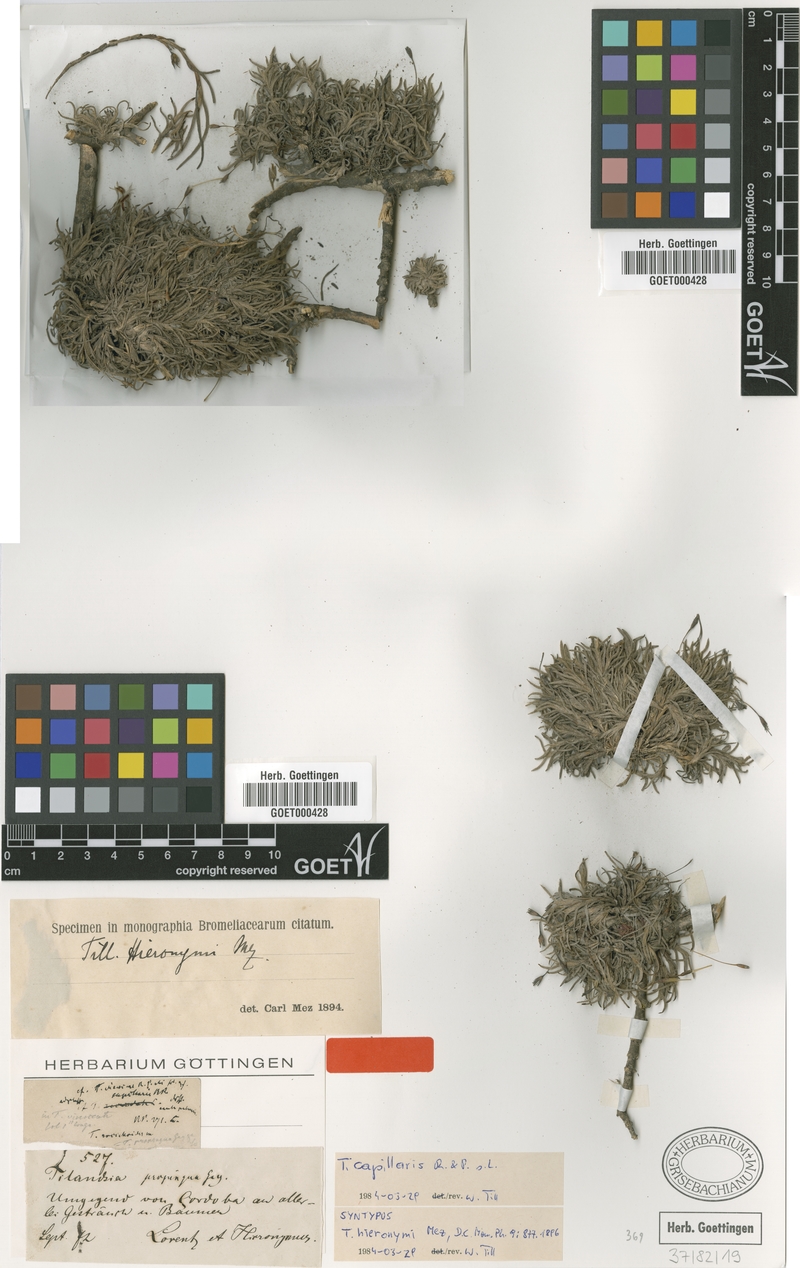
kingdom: Plantae
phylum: Tracheophyta
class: Liliopsida
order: Poales
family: Bromeliaceae
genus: Tillandsia
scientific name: Tillandsia capillaris
